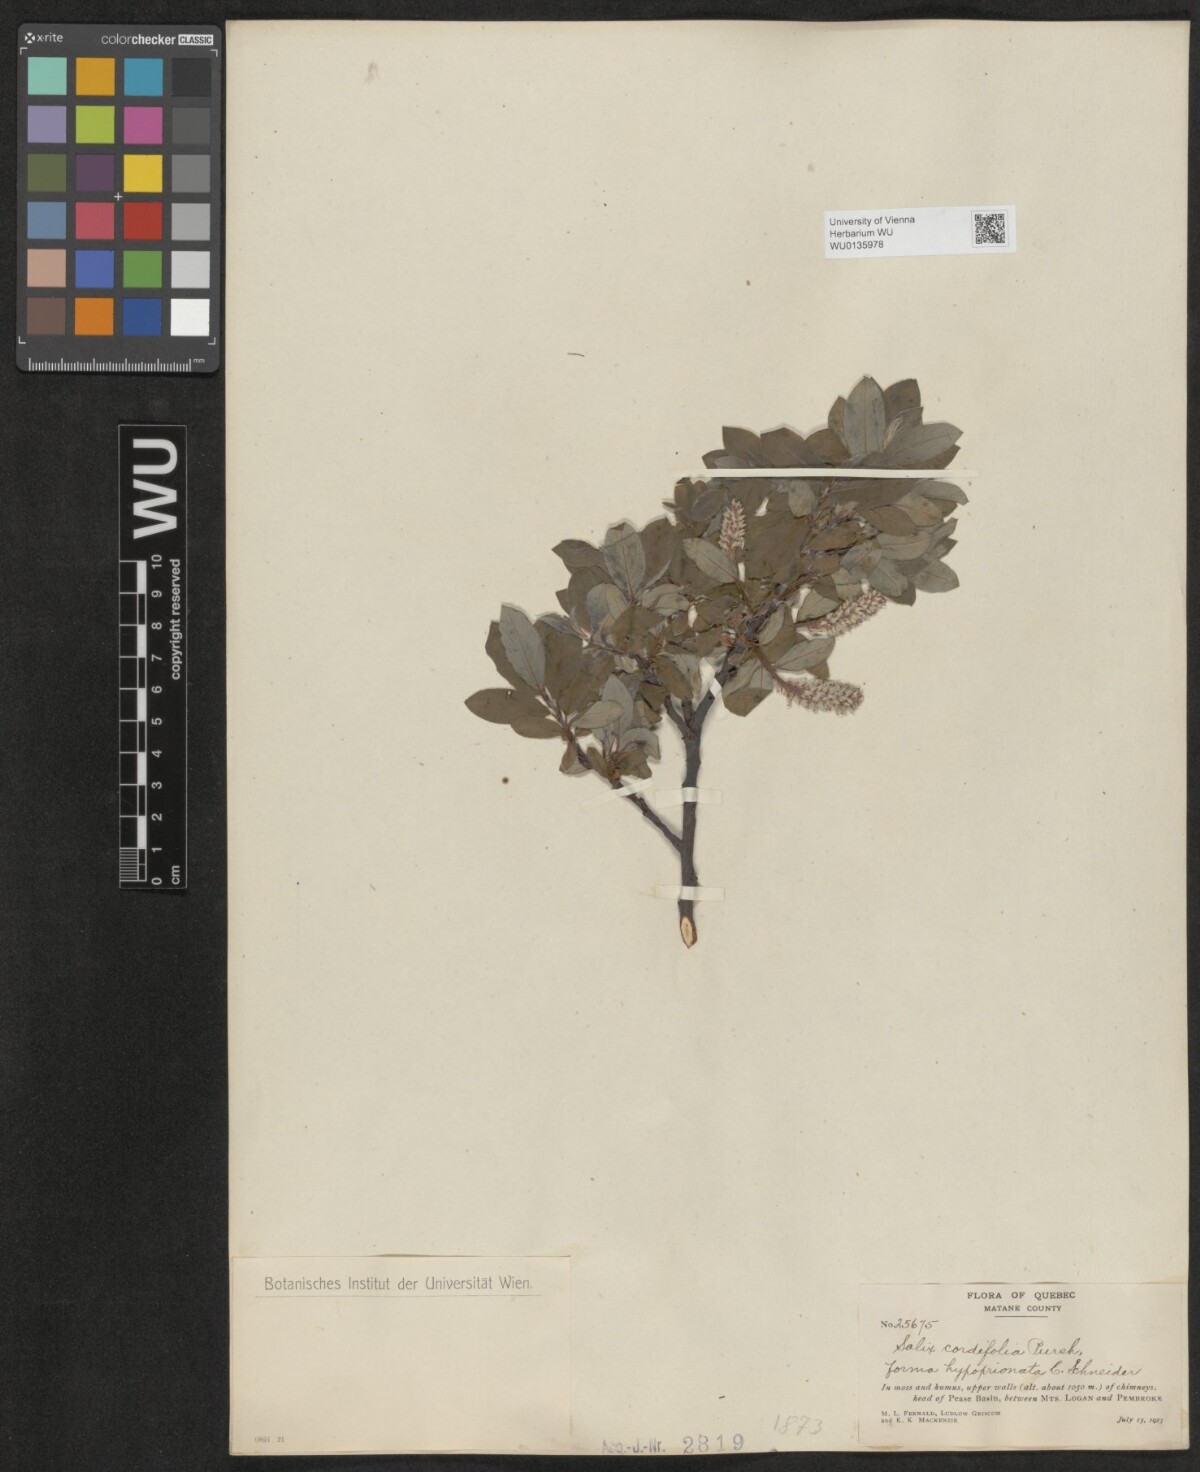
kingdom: Plantae
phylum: Tracheophyta
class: Magnoliopsida
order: Malpighiales
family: Salicaceae
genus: Salix
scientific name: Salix
